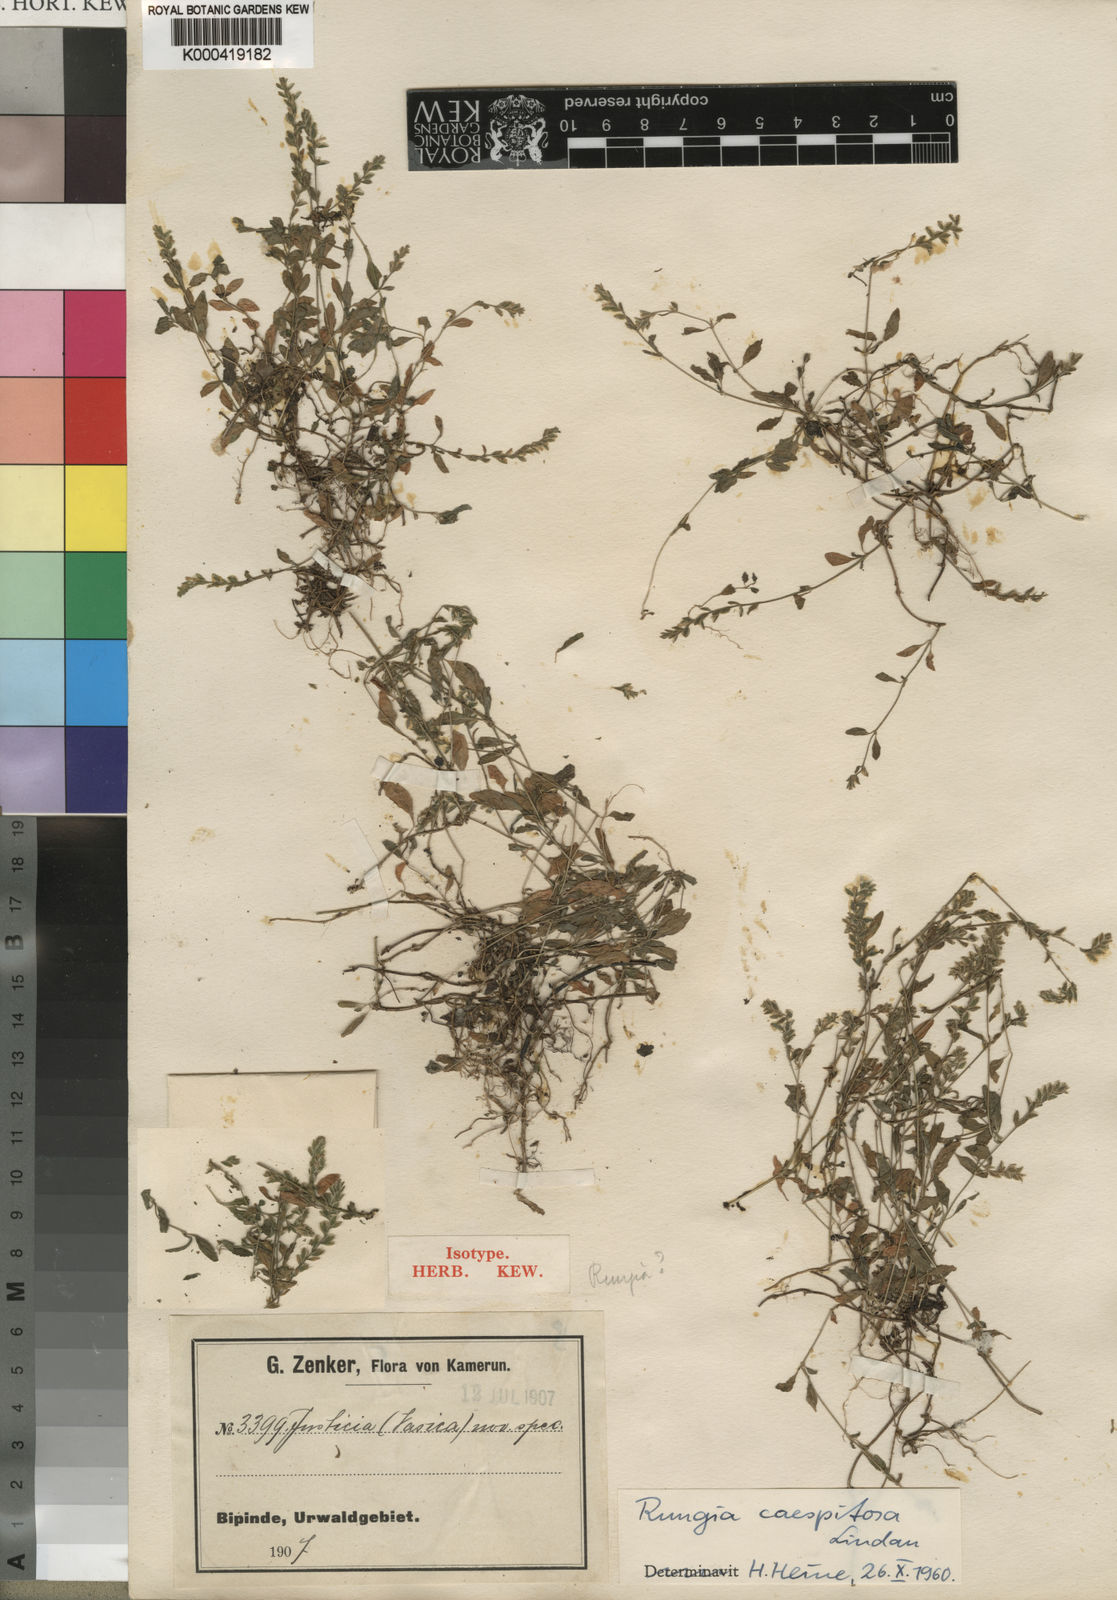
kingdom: Plantae
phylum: Tracheophyta
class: Magnoliopsida
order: Lamiales
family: Acanthaceae
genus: Justicia
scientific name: Justicia
